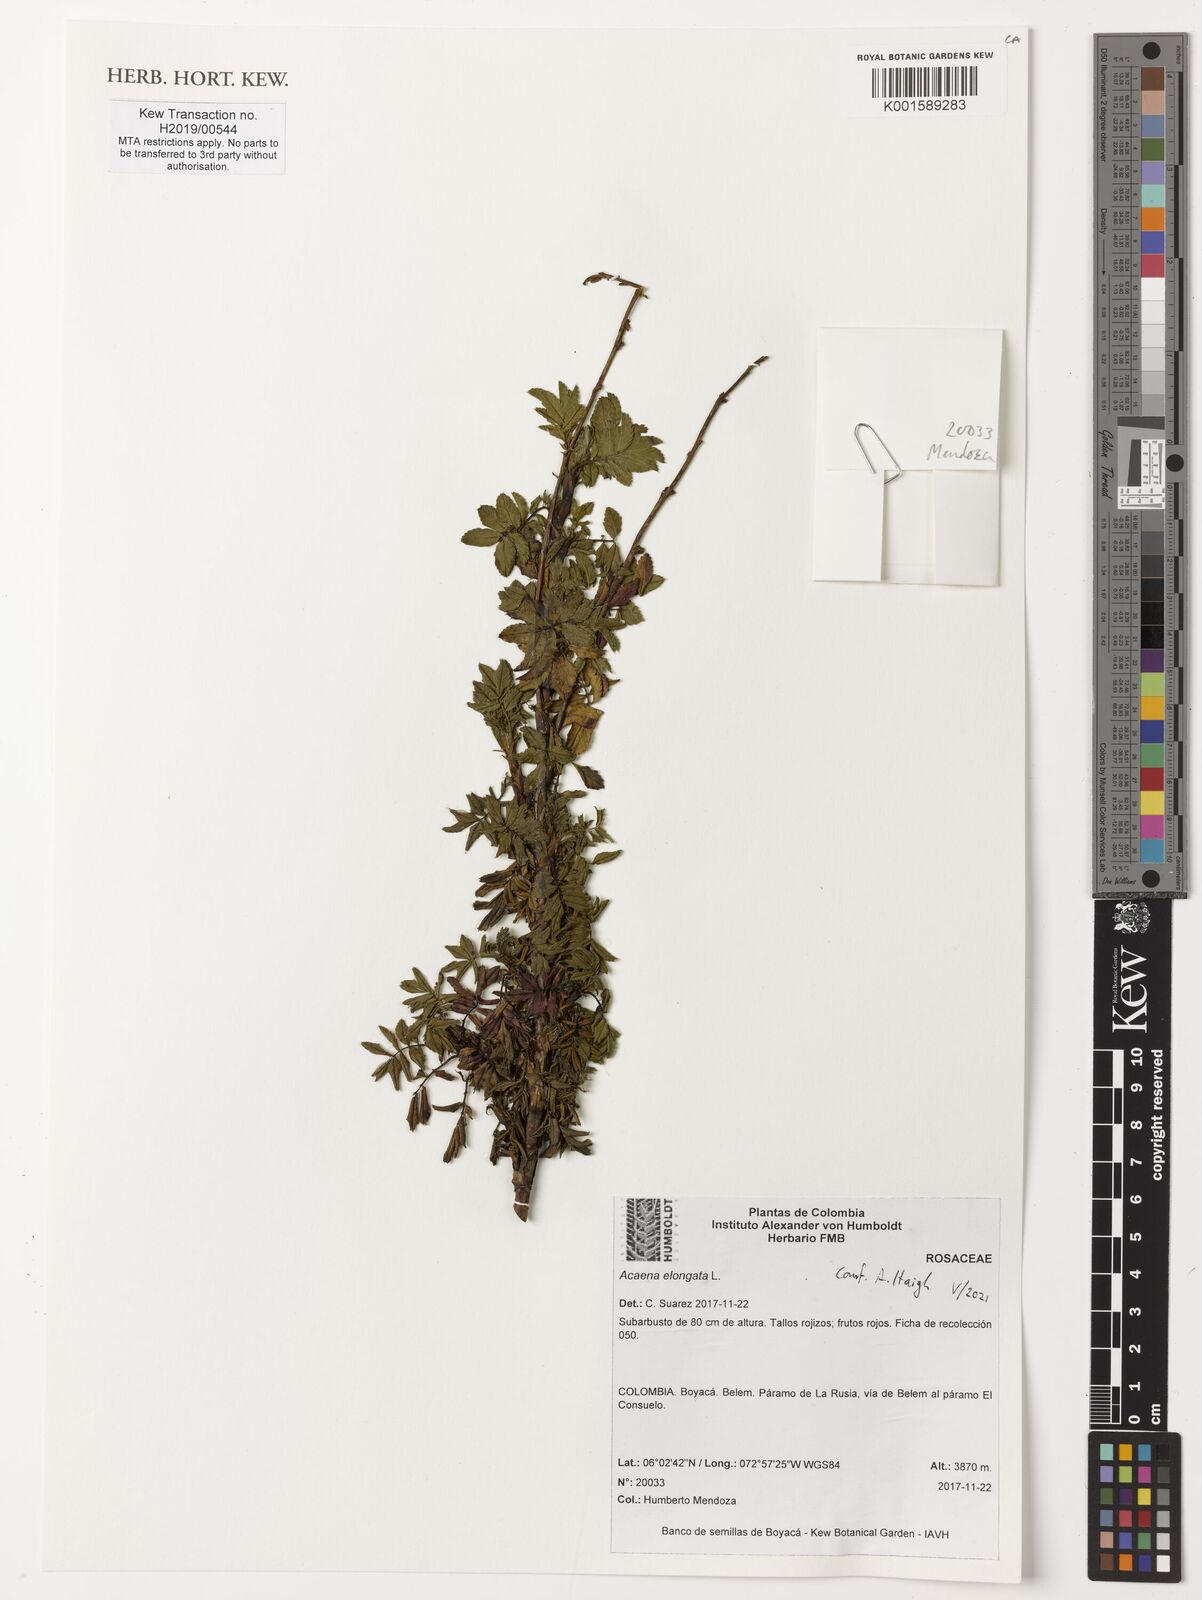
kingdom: Plantae
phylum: Tracheophyta
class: Magnoliopsida
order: Rosales
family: Rosaceae
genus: Acaena
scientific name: Acaena elongata
